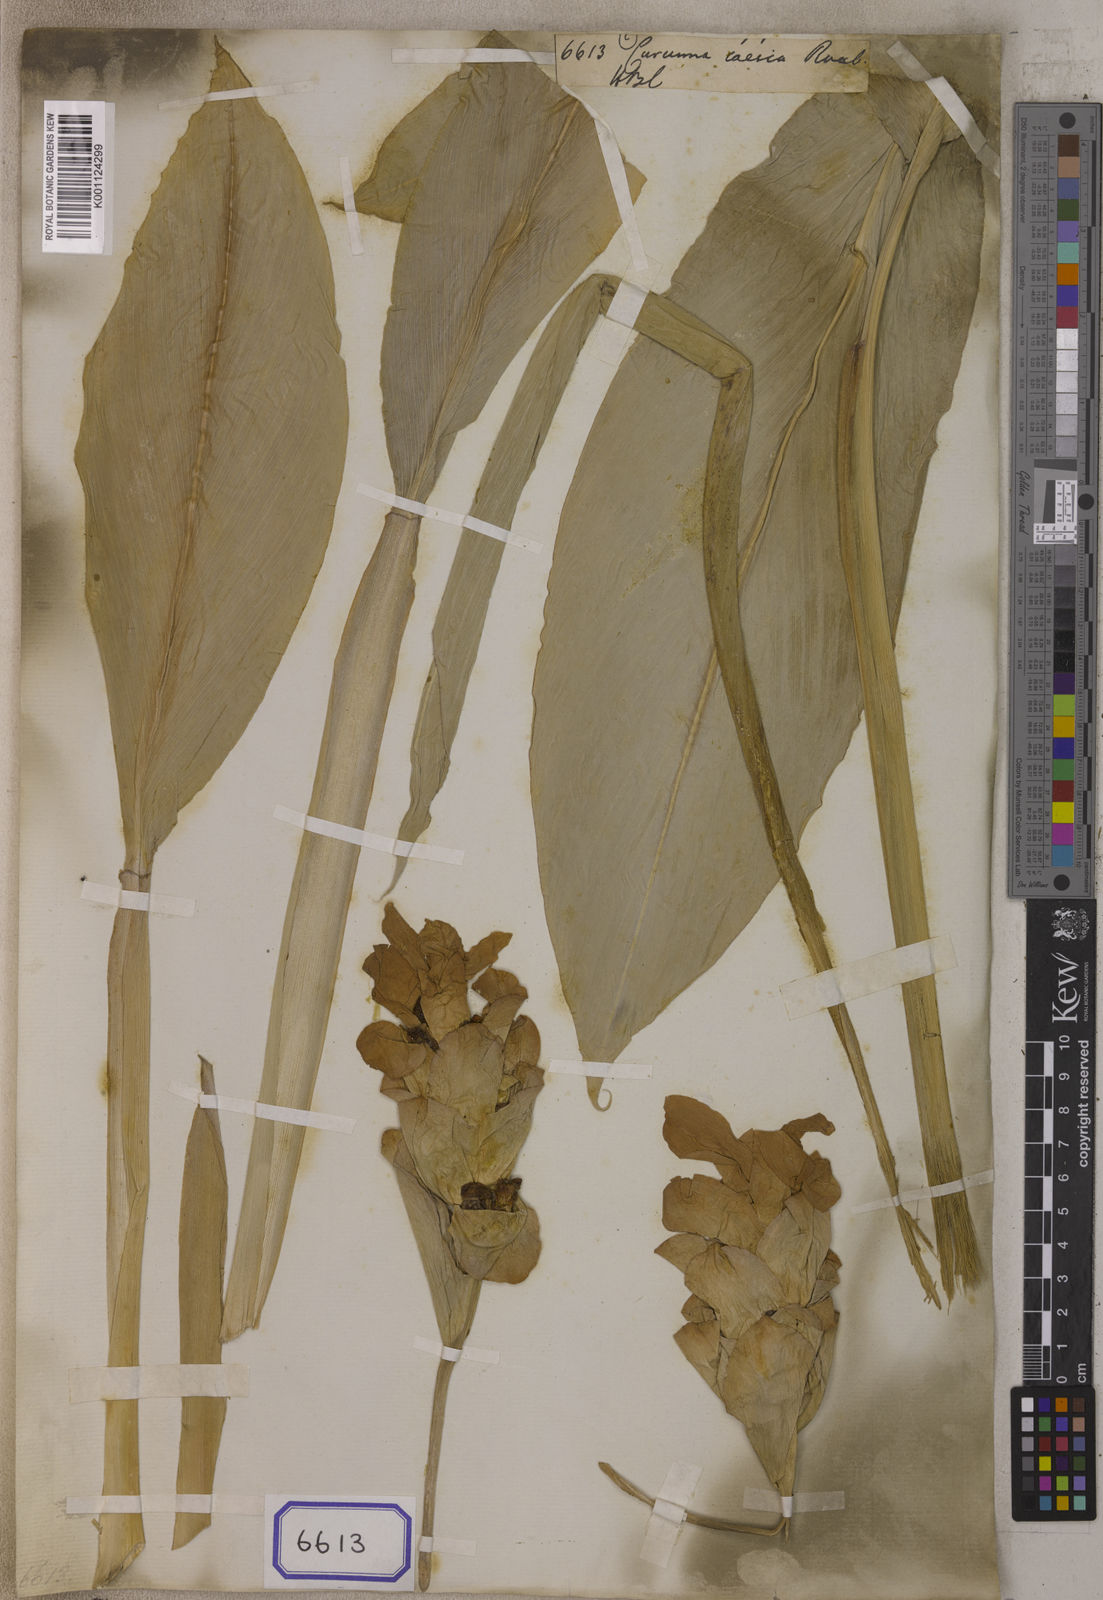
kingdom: Plantae
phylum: Tracheophyta
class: Liliopsida
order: Zingiberales
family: Zingiberaceae
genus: Curcuma
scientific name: Curcuma caesia
